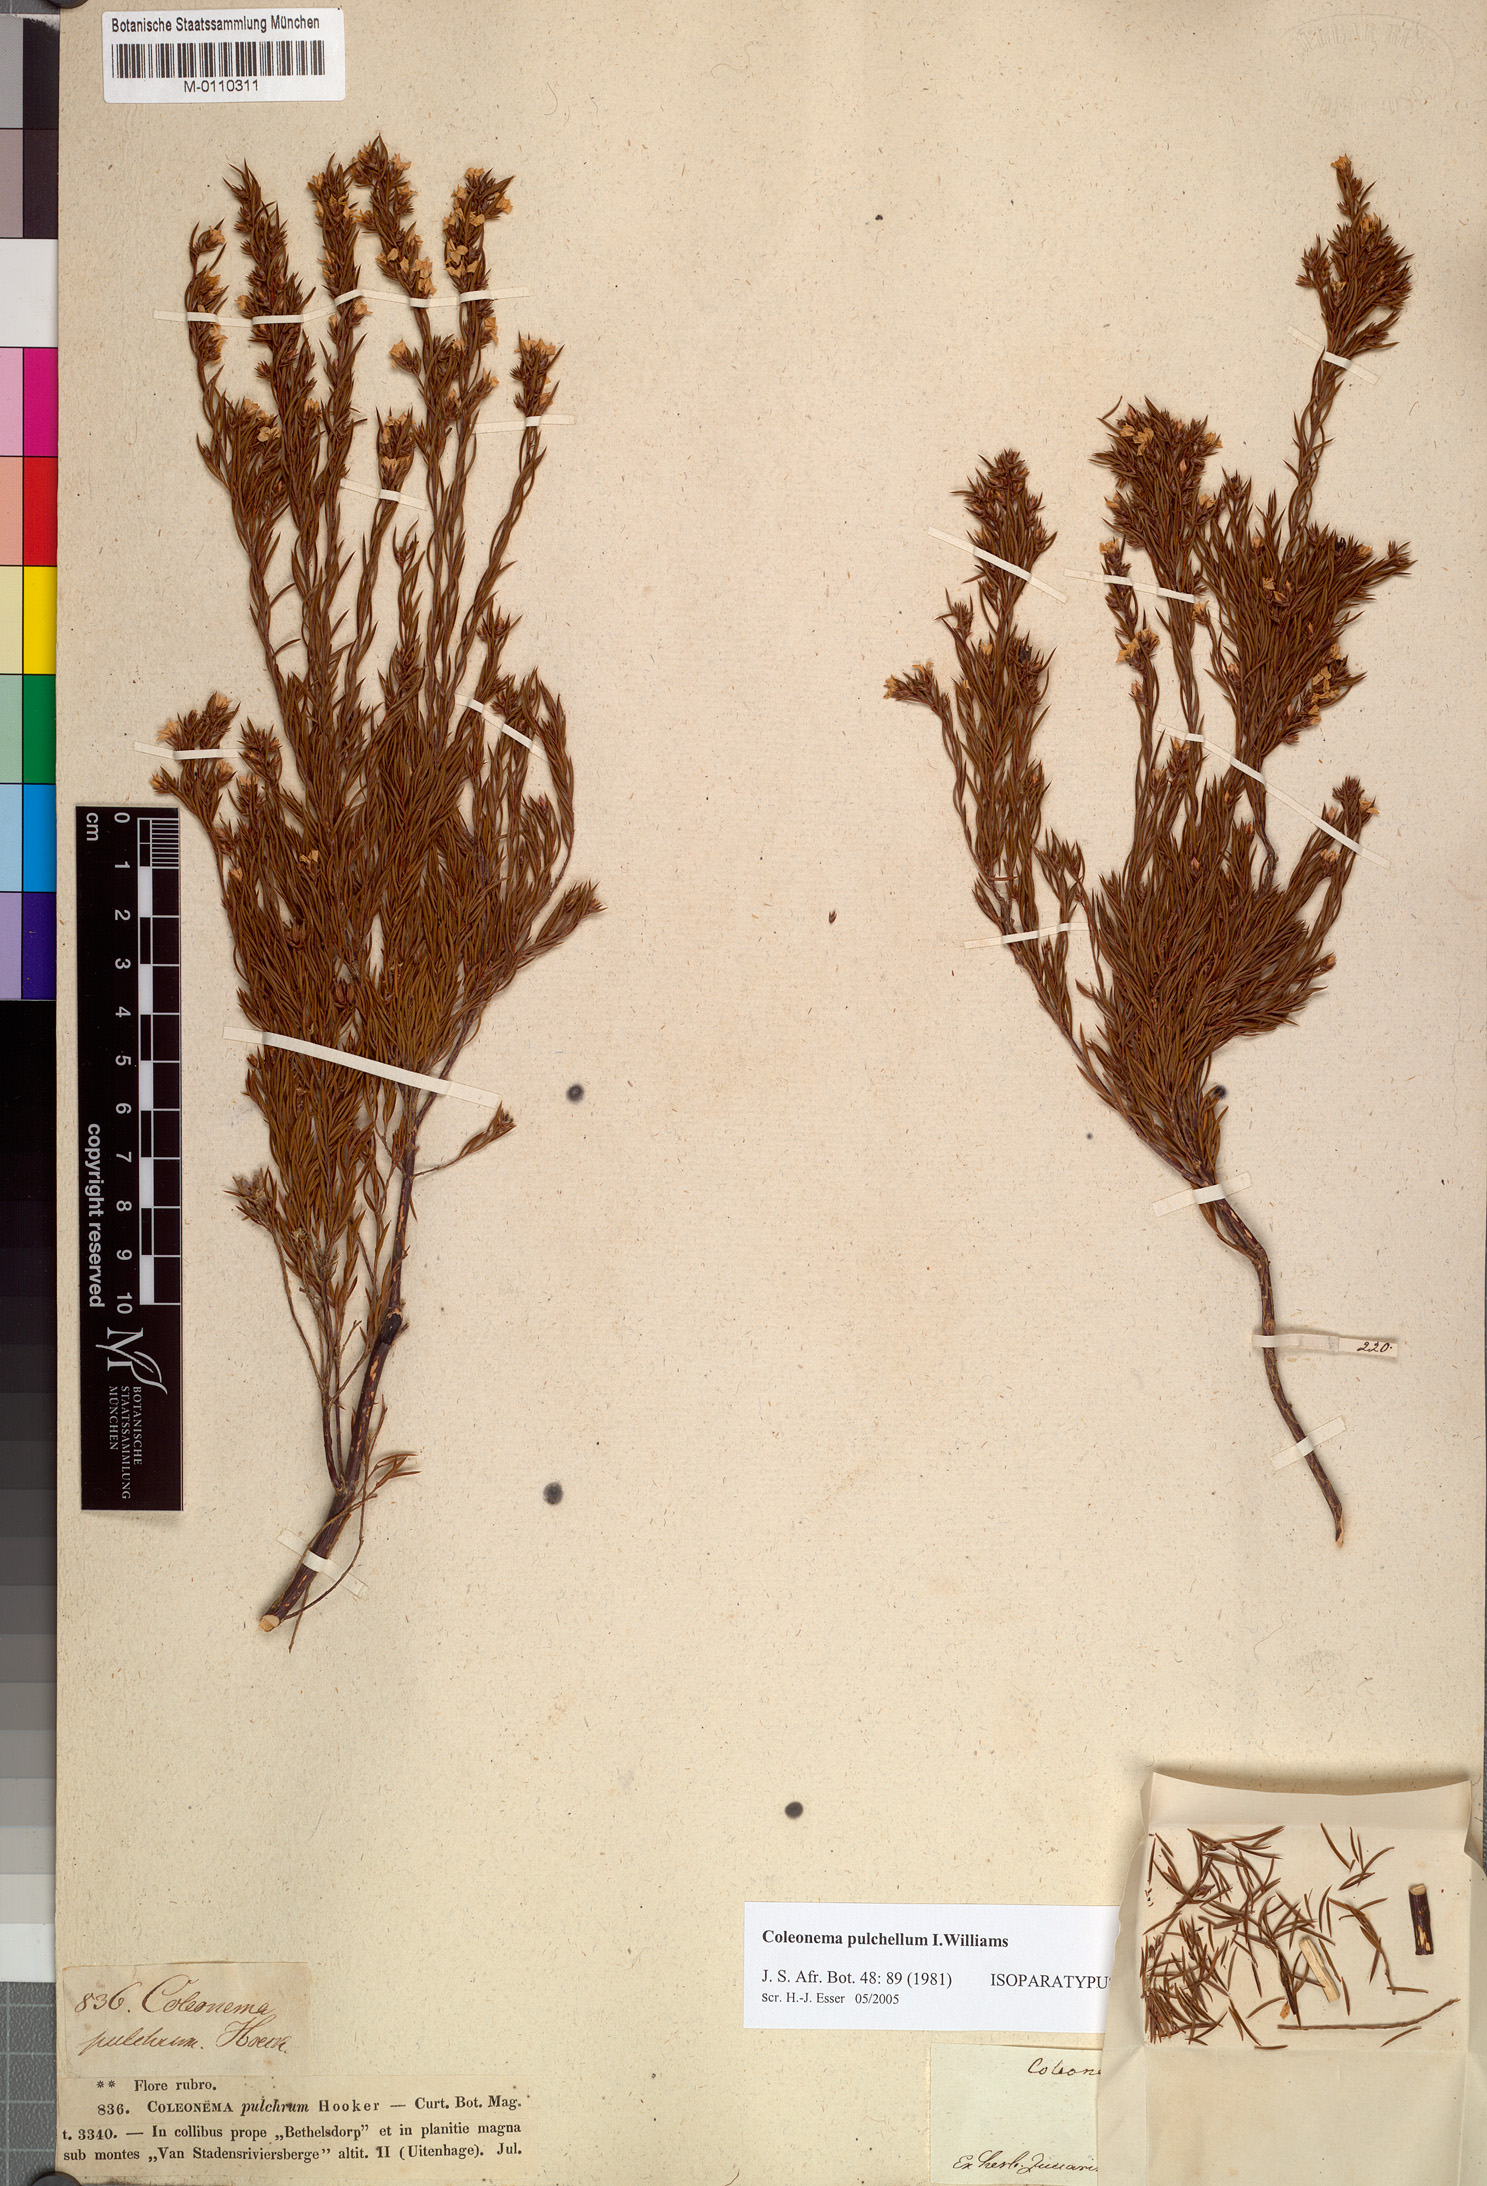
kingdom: Plantae
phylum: Tracheophyta
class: Magnoliopsida
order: Sapindales
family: Rutaceae
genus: Coleonema
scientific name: Coleonema pulchellum
